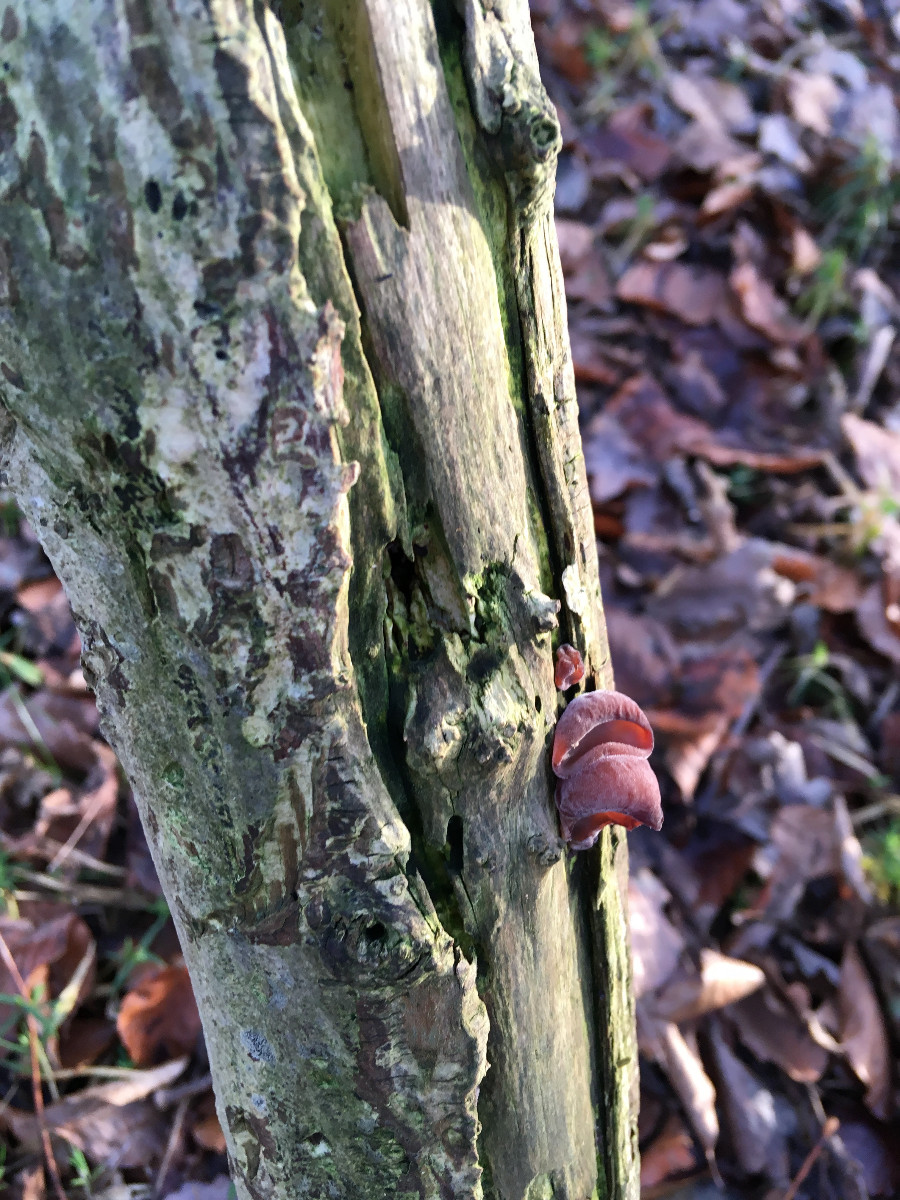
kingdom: Fungi
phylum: Basidiomycota
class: Agaricomycetes
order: Auriculariales
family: Auriculariaceae
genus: Auricularia
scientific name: Auricularia auricula-judae
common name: almindelig judasøre
